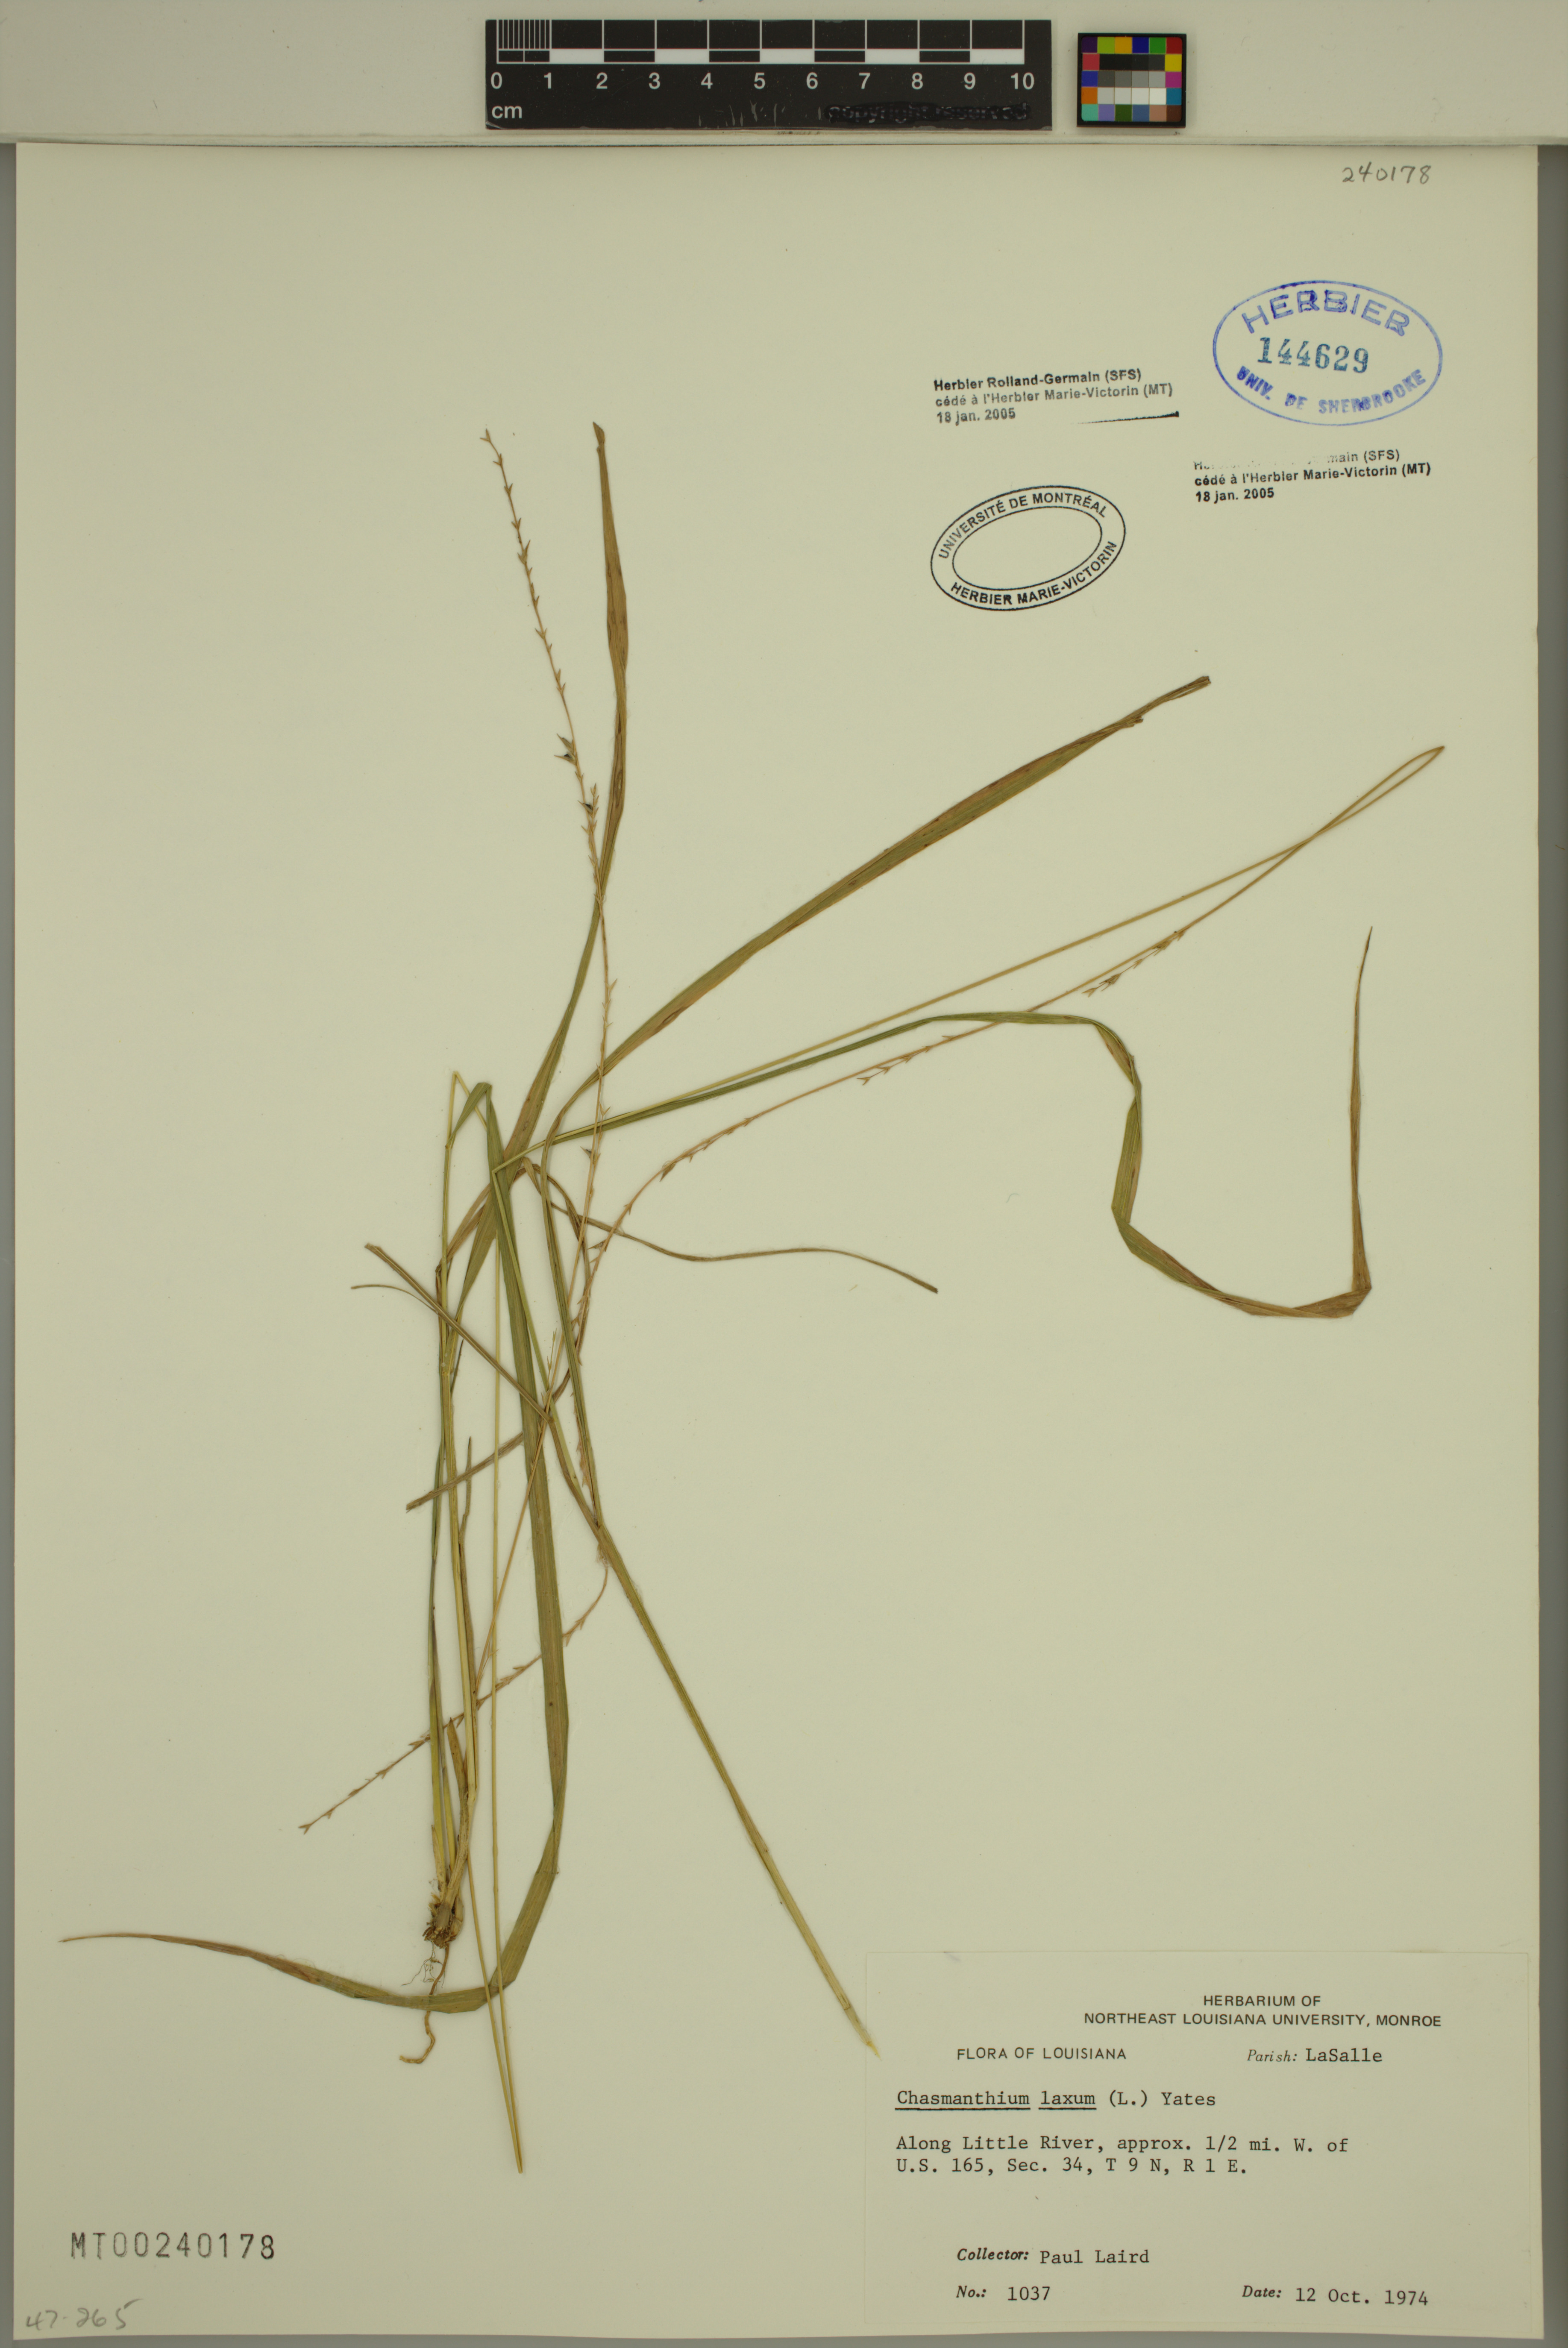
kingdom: Plantae
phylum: Tracheophyta
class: Liliopsida
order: Poales
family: Poaceae
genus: Chasmanthium
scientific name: Chasmanthium laxum
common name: Slender chasmanthium
